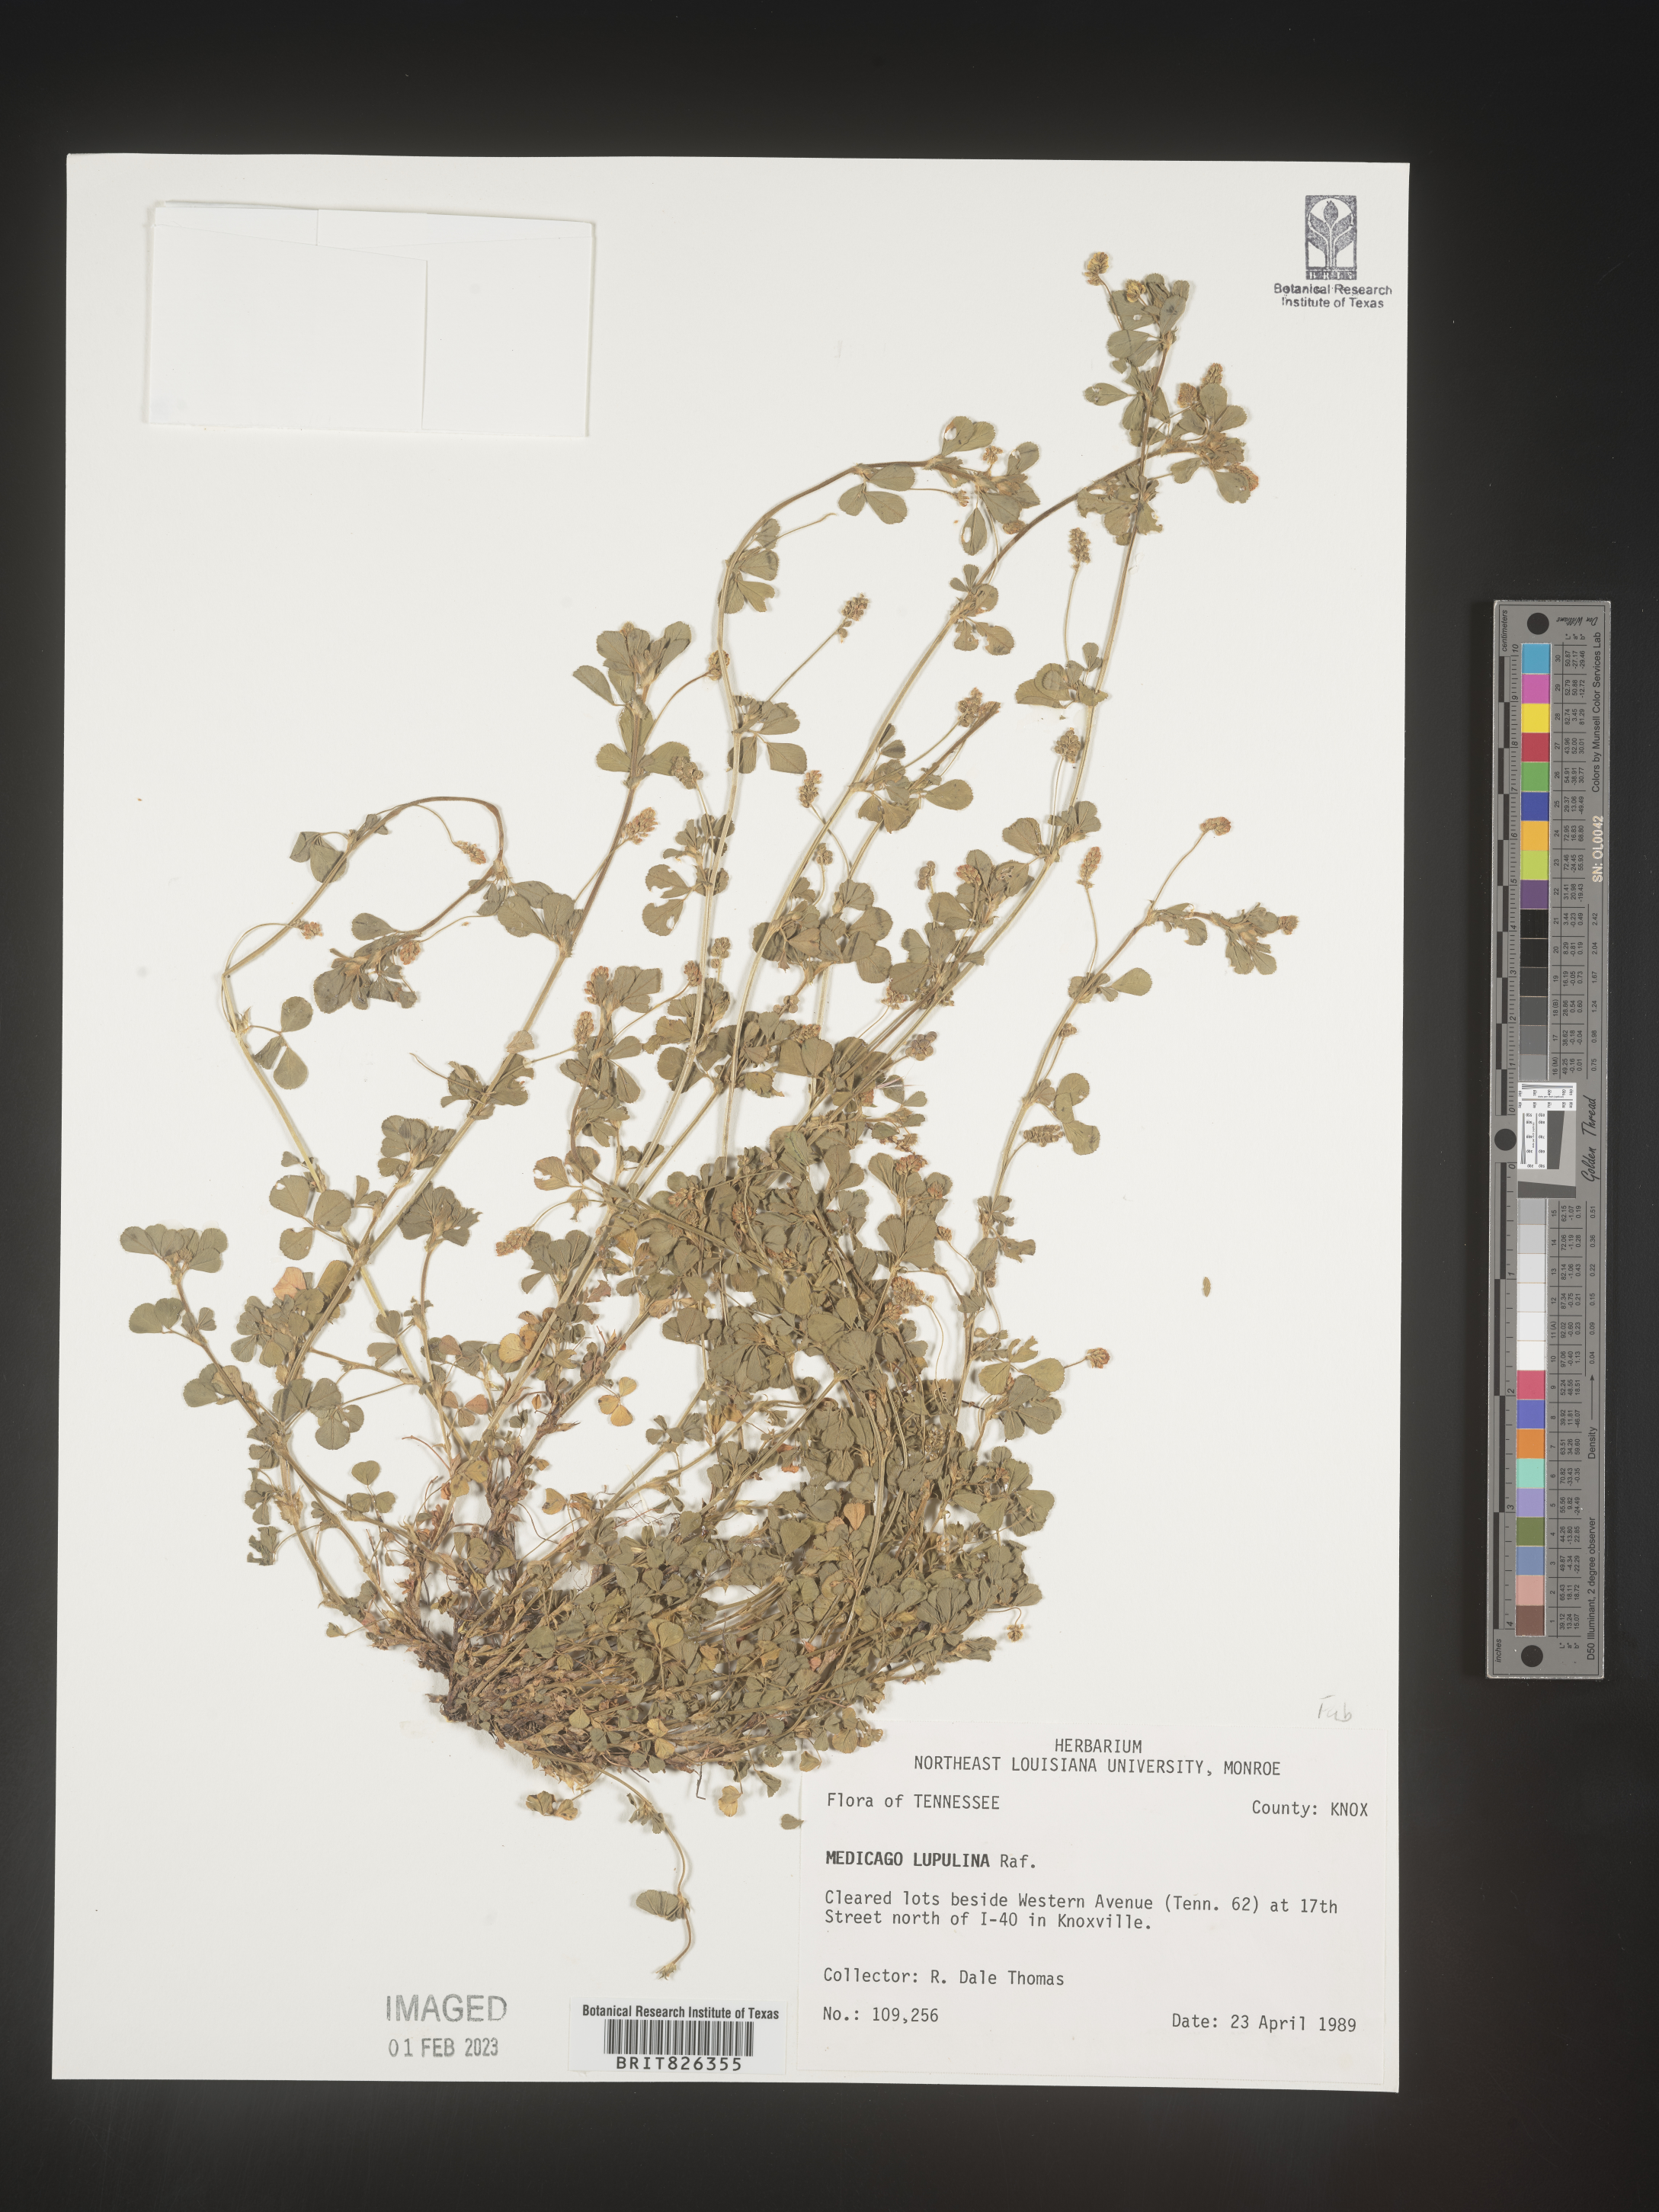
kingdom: Plantae
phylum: Tracheophyta
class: Magnoliopsida
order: Fabales
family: Fabaceae
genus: Medicago
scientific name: Medicago lupulina
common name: Black medick
